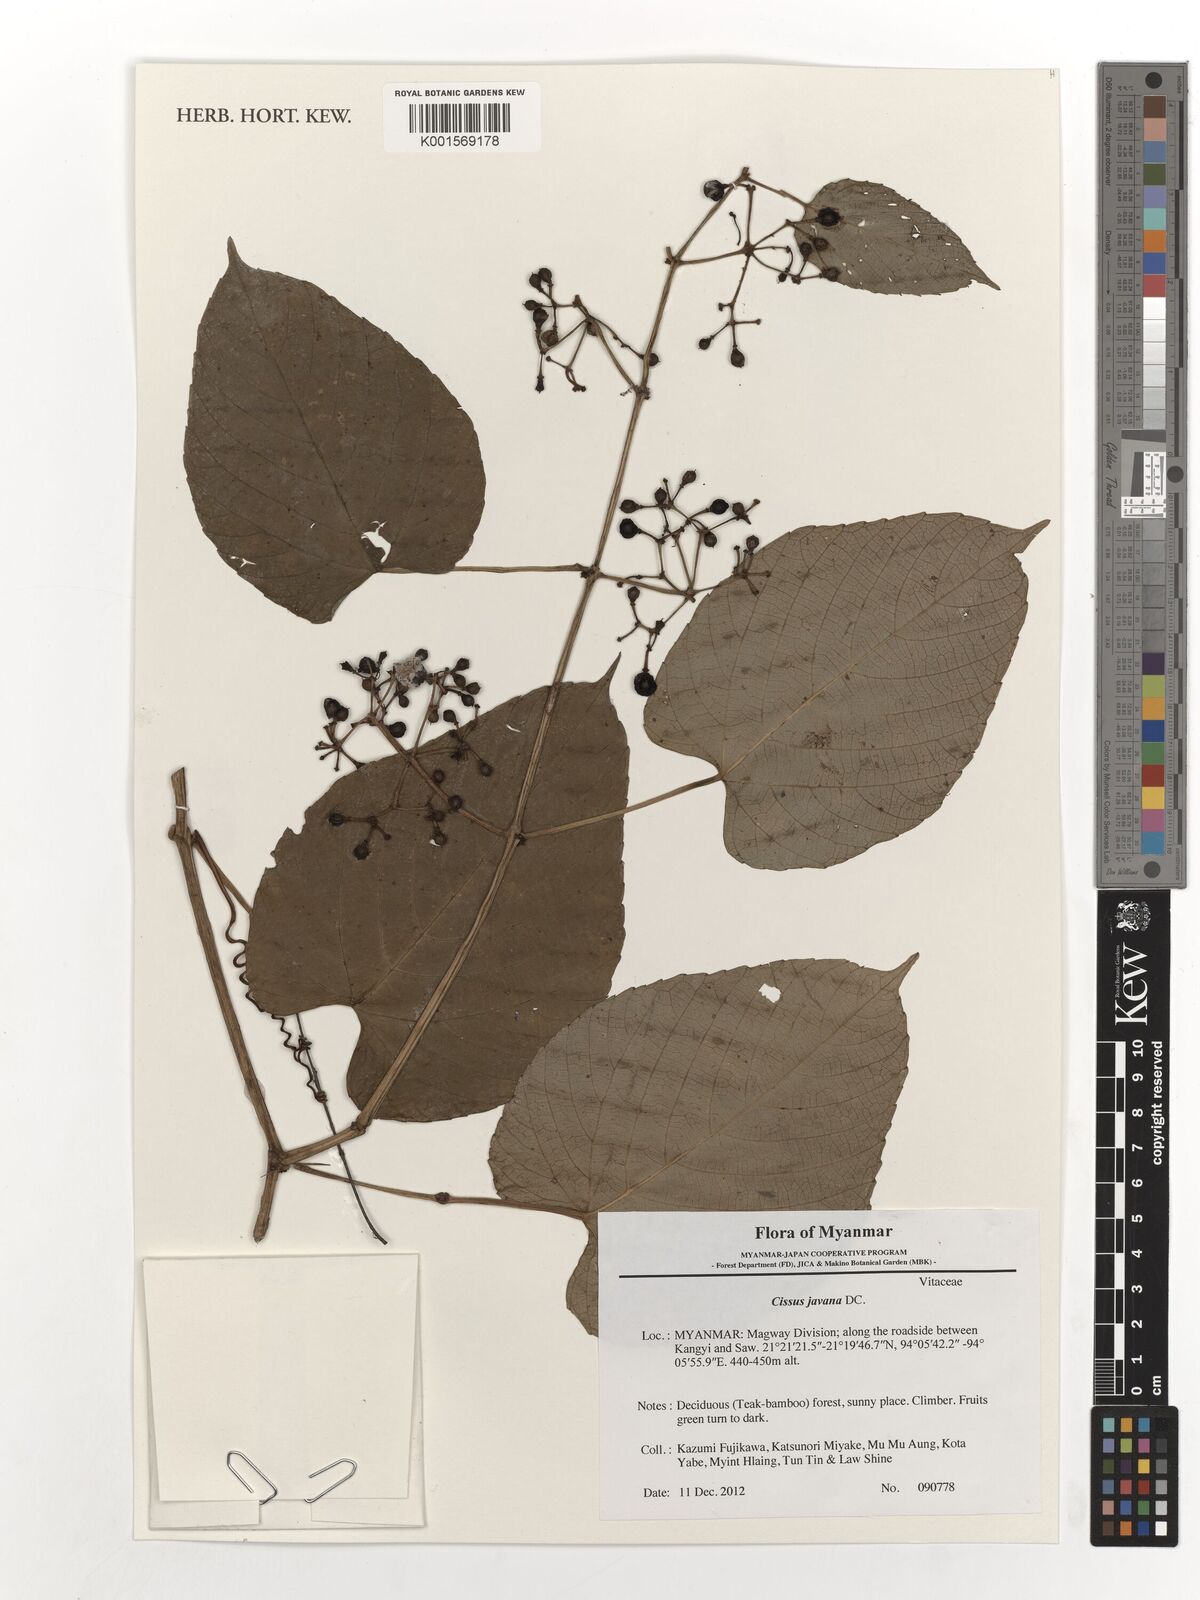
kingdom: Plantae
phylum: Tracheophyta
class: Magnoliopsida
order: Vitales
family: Vitaceae
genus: Cissus
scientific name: Cissus discolor
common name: Climbing-begonia
